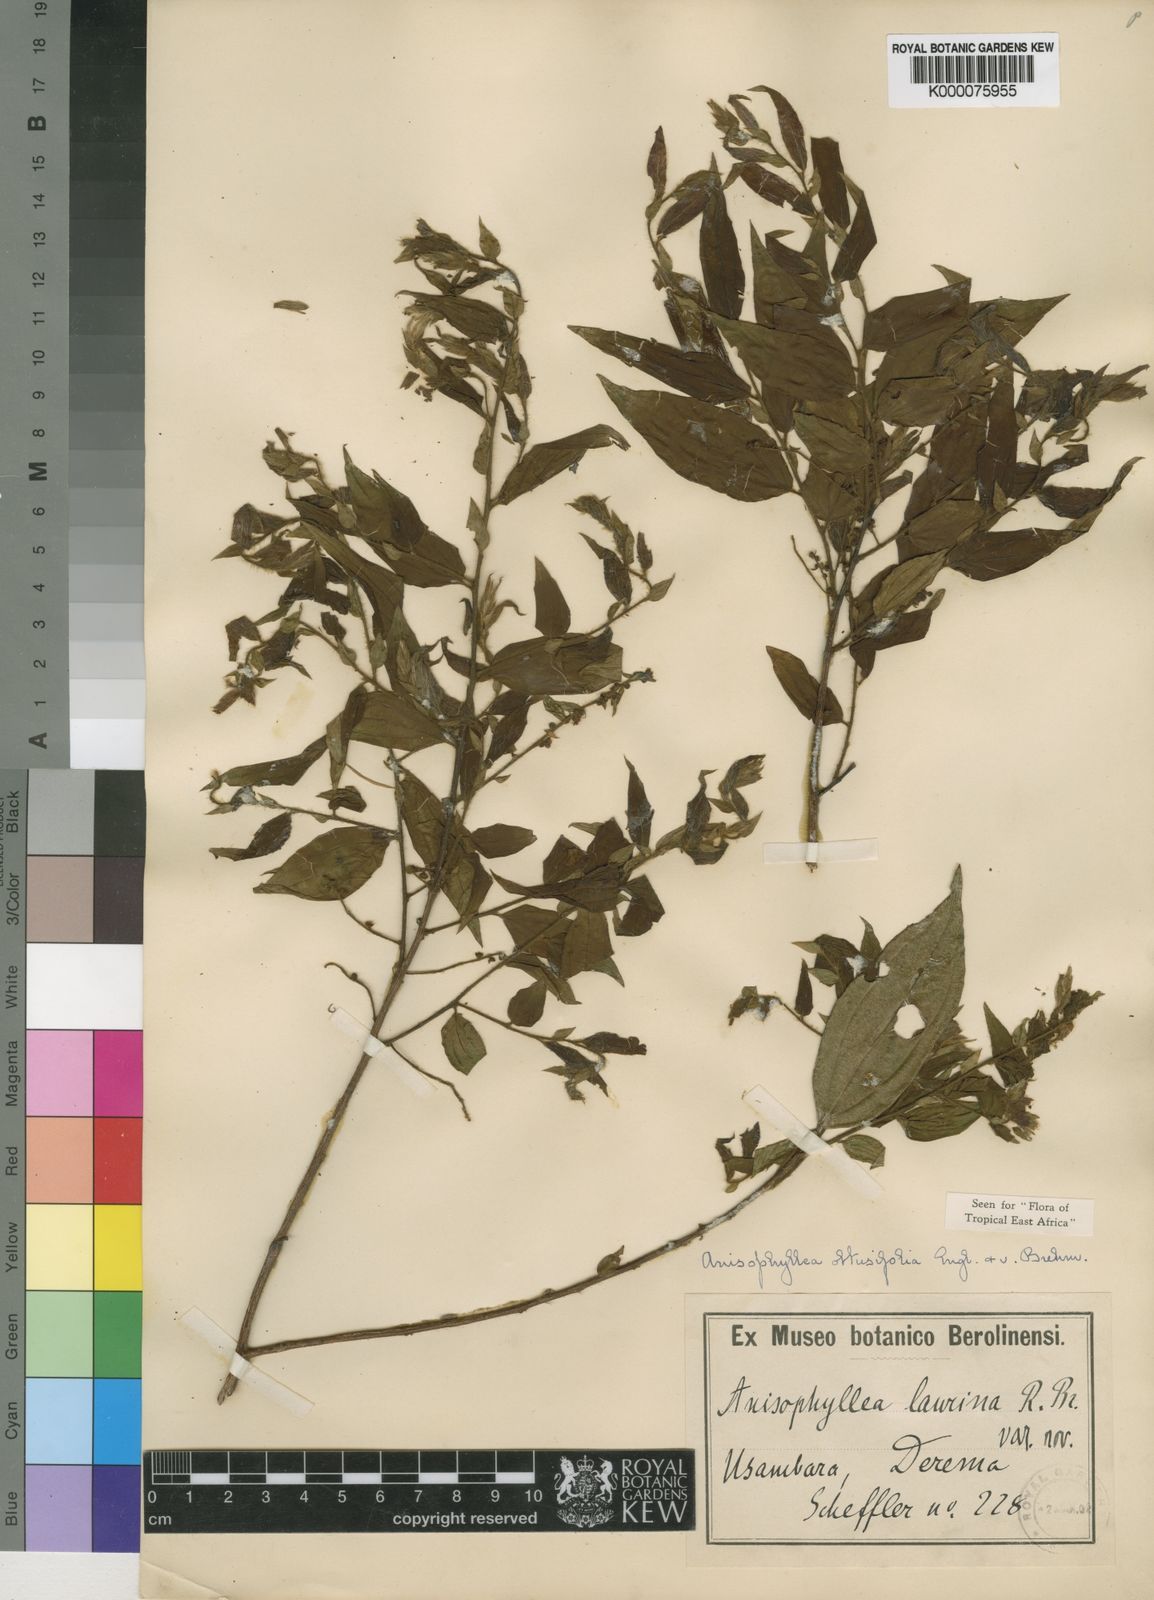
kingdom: Plantae
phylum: Tracheophyta
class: Magnoliopsida
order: Cucurbitales
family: Anisophylleaceae
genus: Anisophyllea
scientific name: Anisophyllea obtusifolia
